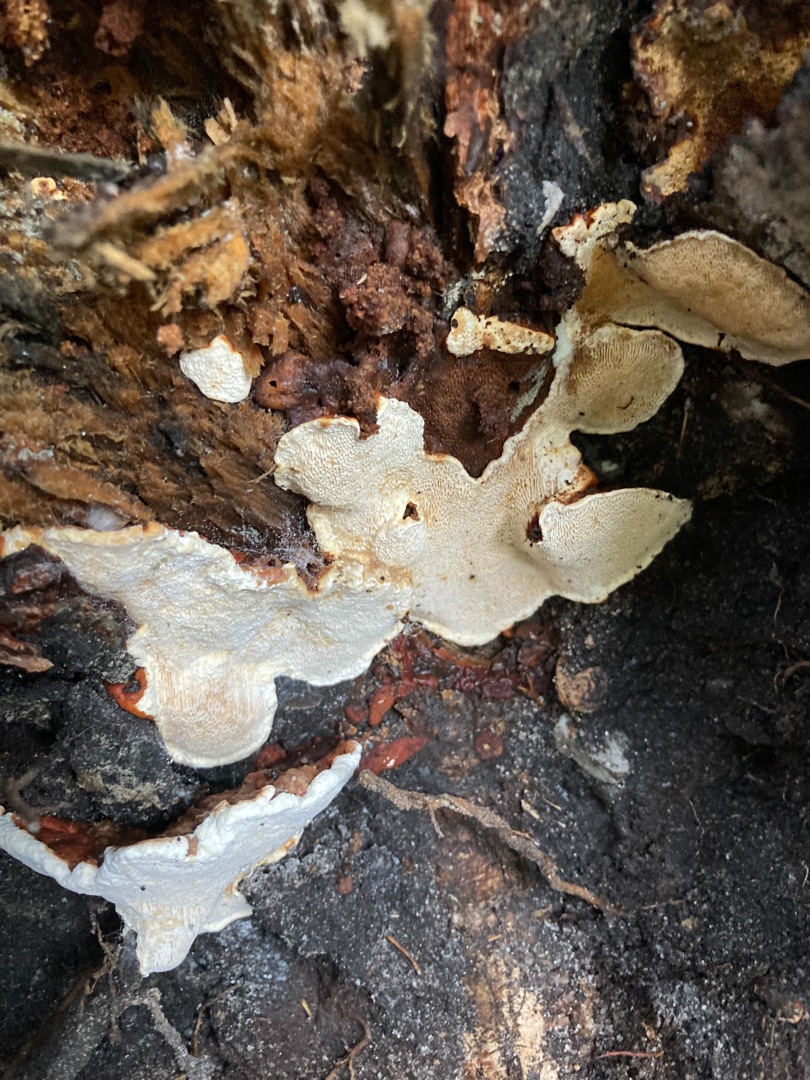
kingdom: Fungi
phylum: Basidiomycota
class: Agaricomycetes
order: Russulales
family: Bondarzewiaceae
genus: Heterobasidion
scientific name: Heterobasidion annosum
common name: Almindelig rodfordærver
